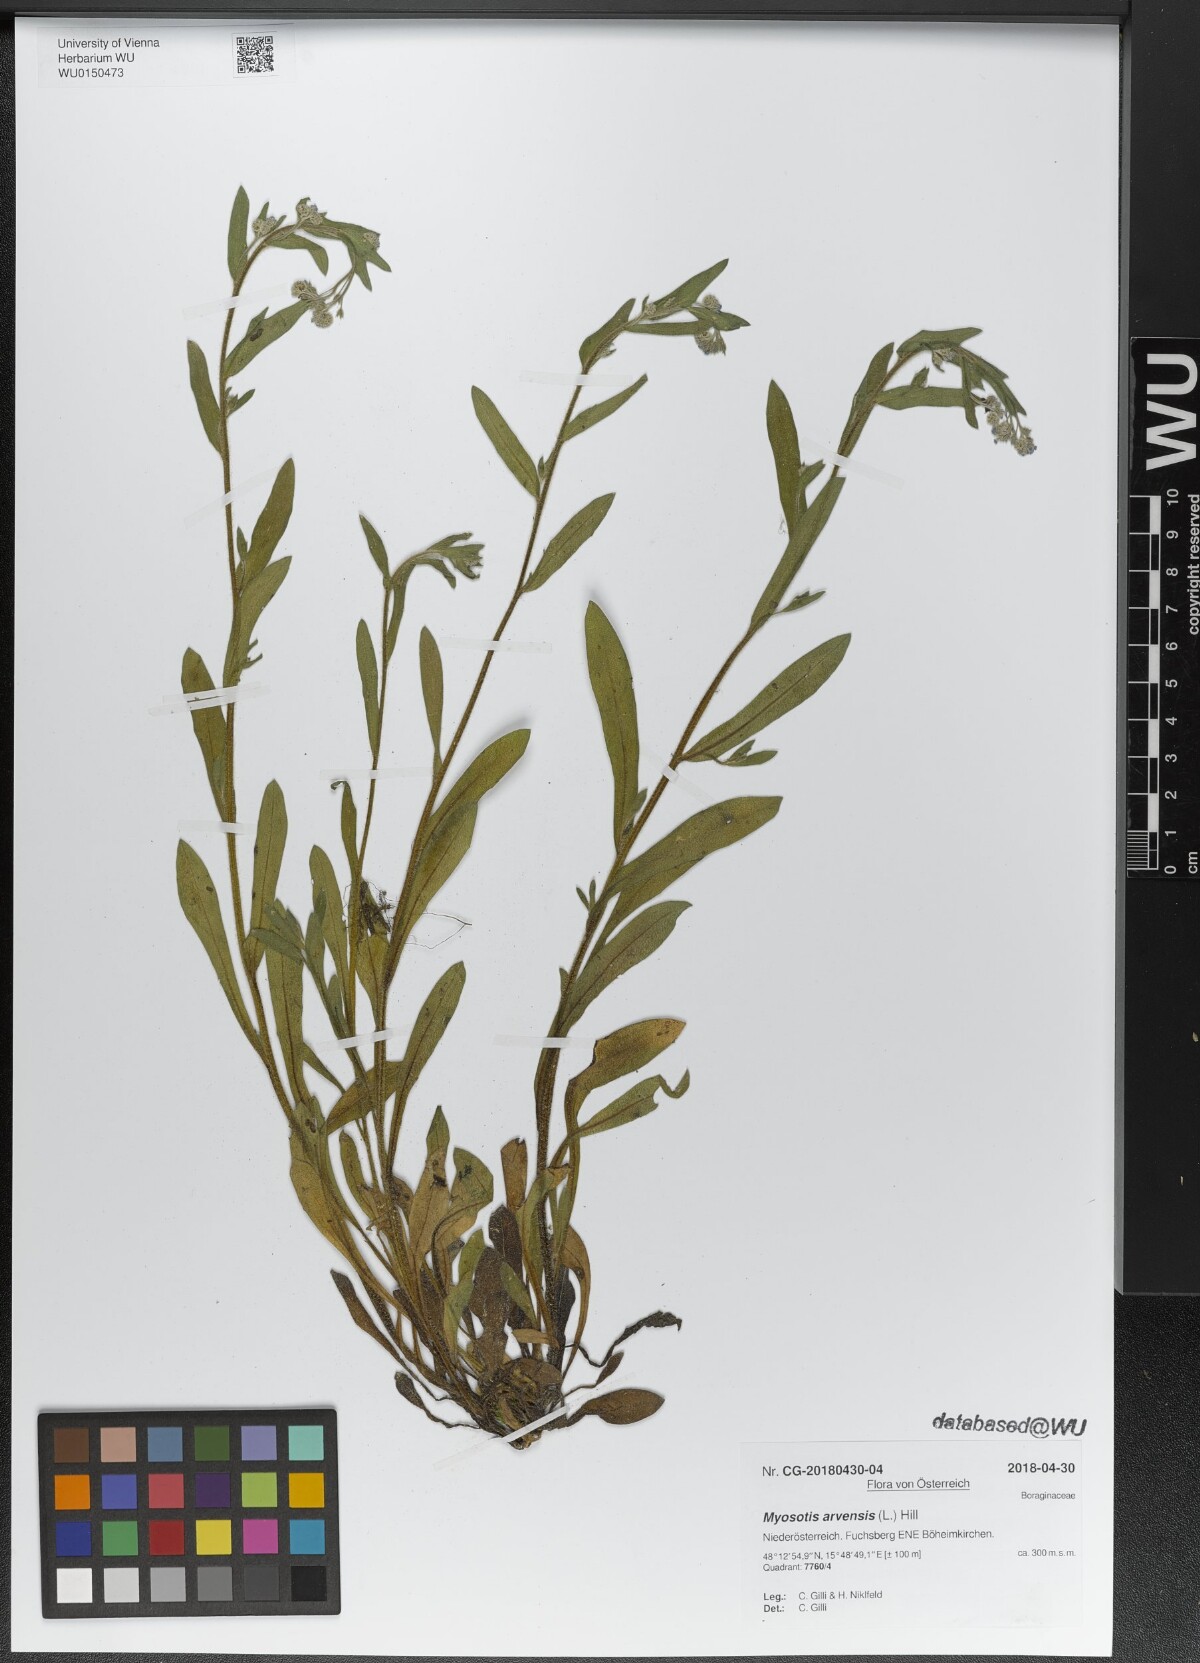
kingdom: Plantae
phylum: Tracheophyta
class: Magnoliopsida
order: Boraginales
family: Boraginaceae
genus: Myosotis
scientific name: Myosotis arvensis
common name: Field forget-me-not
